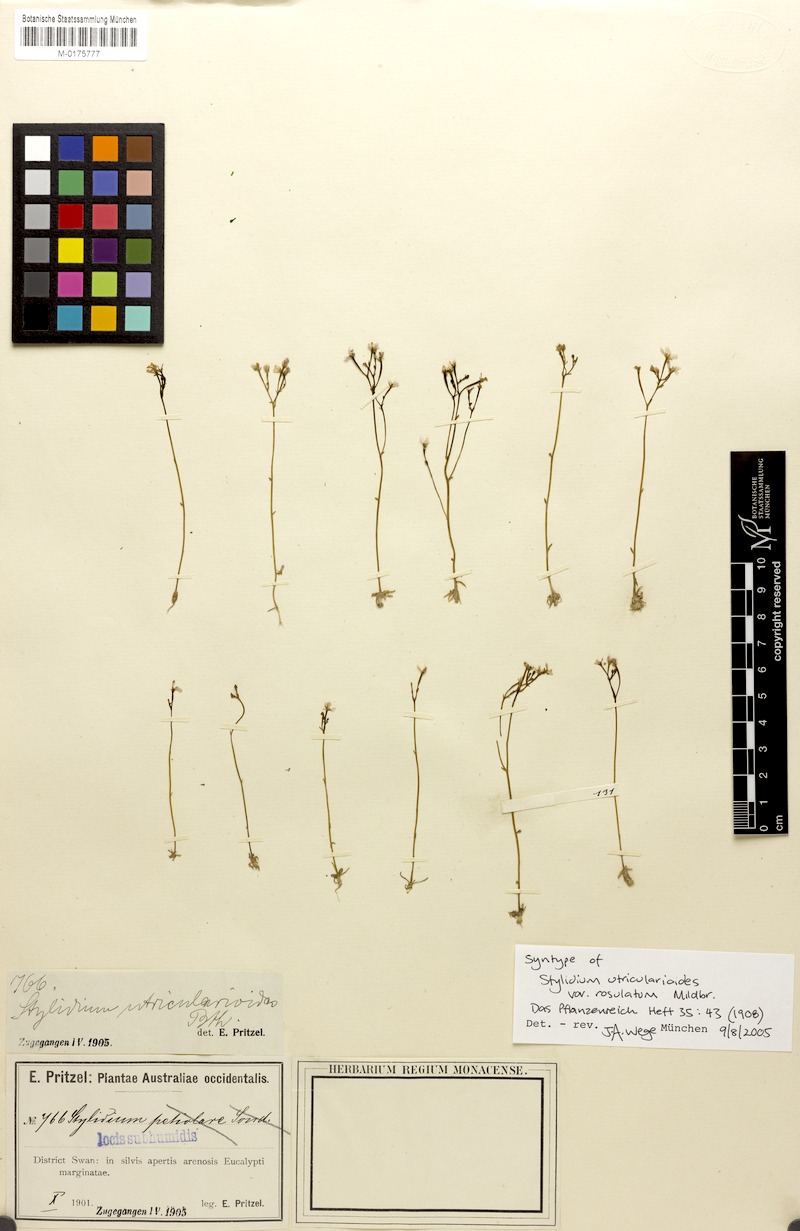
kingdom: Plantae
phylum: Tracheophyta
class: Magnoliopsida
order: Asterales
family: Stylidiaceae
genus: Stylidium
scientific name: Stylidium roseoalatum
